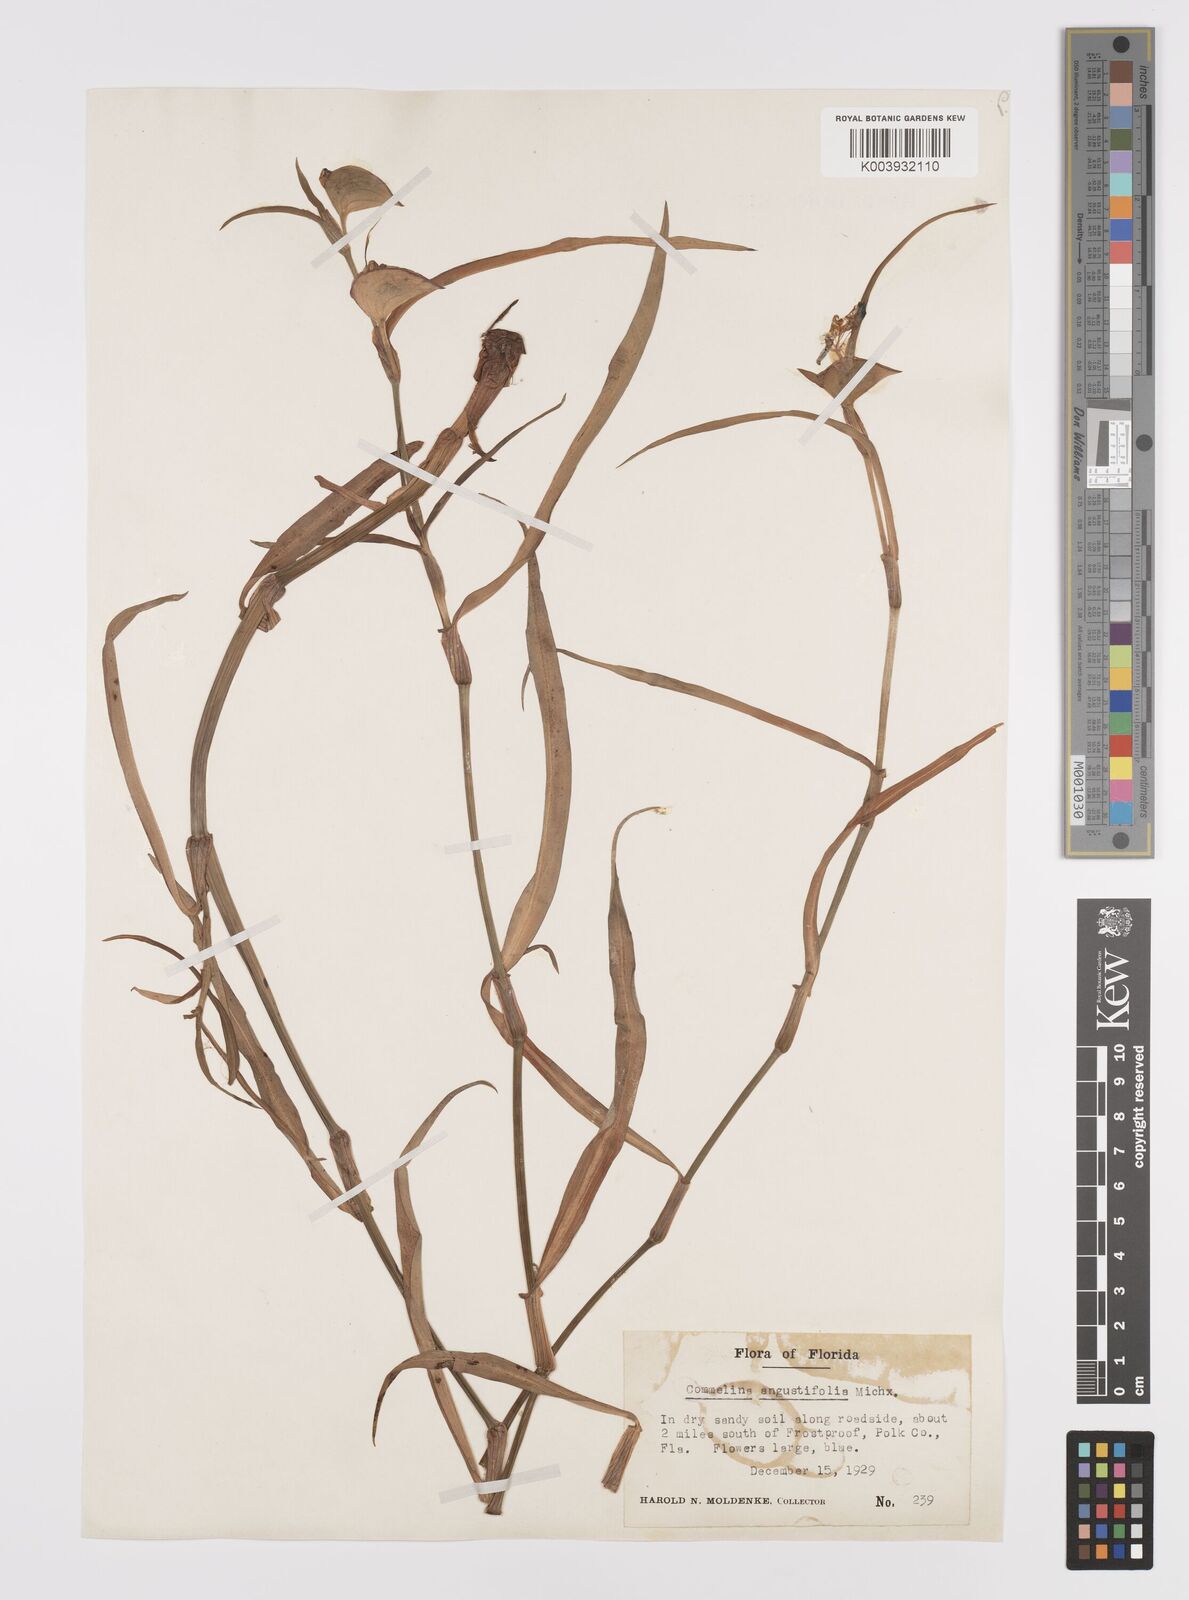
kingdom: Plantae
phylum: Tracheophyta
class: Liliopsida
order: Commelinales
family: Commelinaceae
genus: Commelina
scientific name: Commelina erecta
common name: Blousel blommetjie
